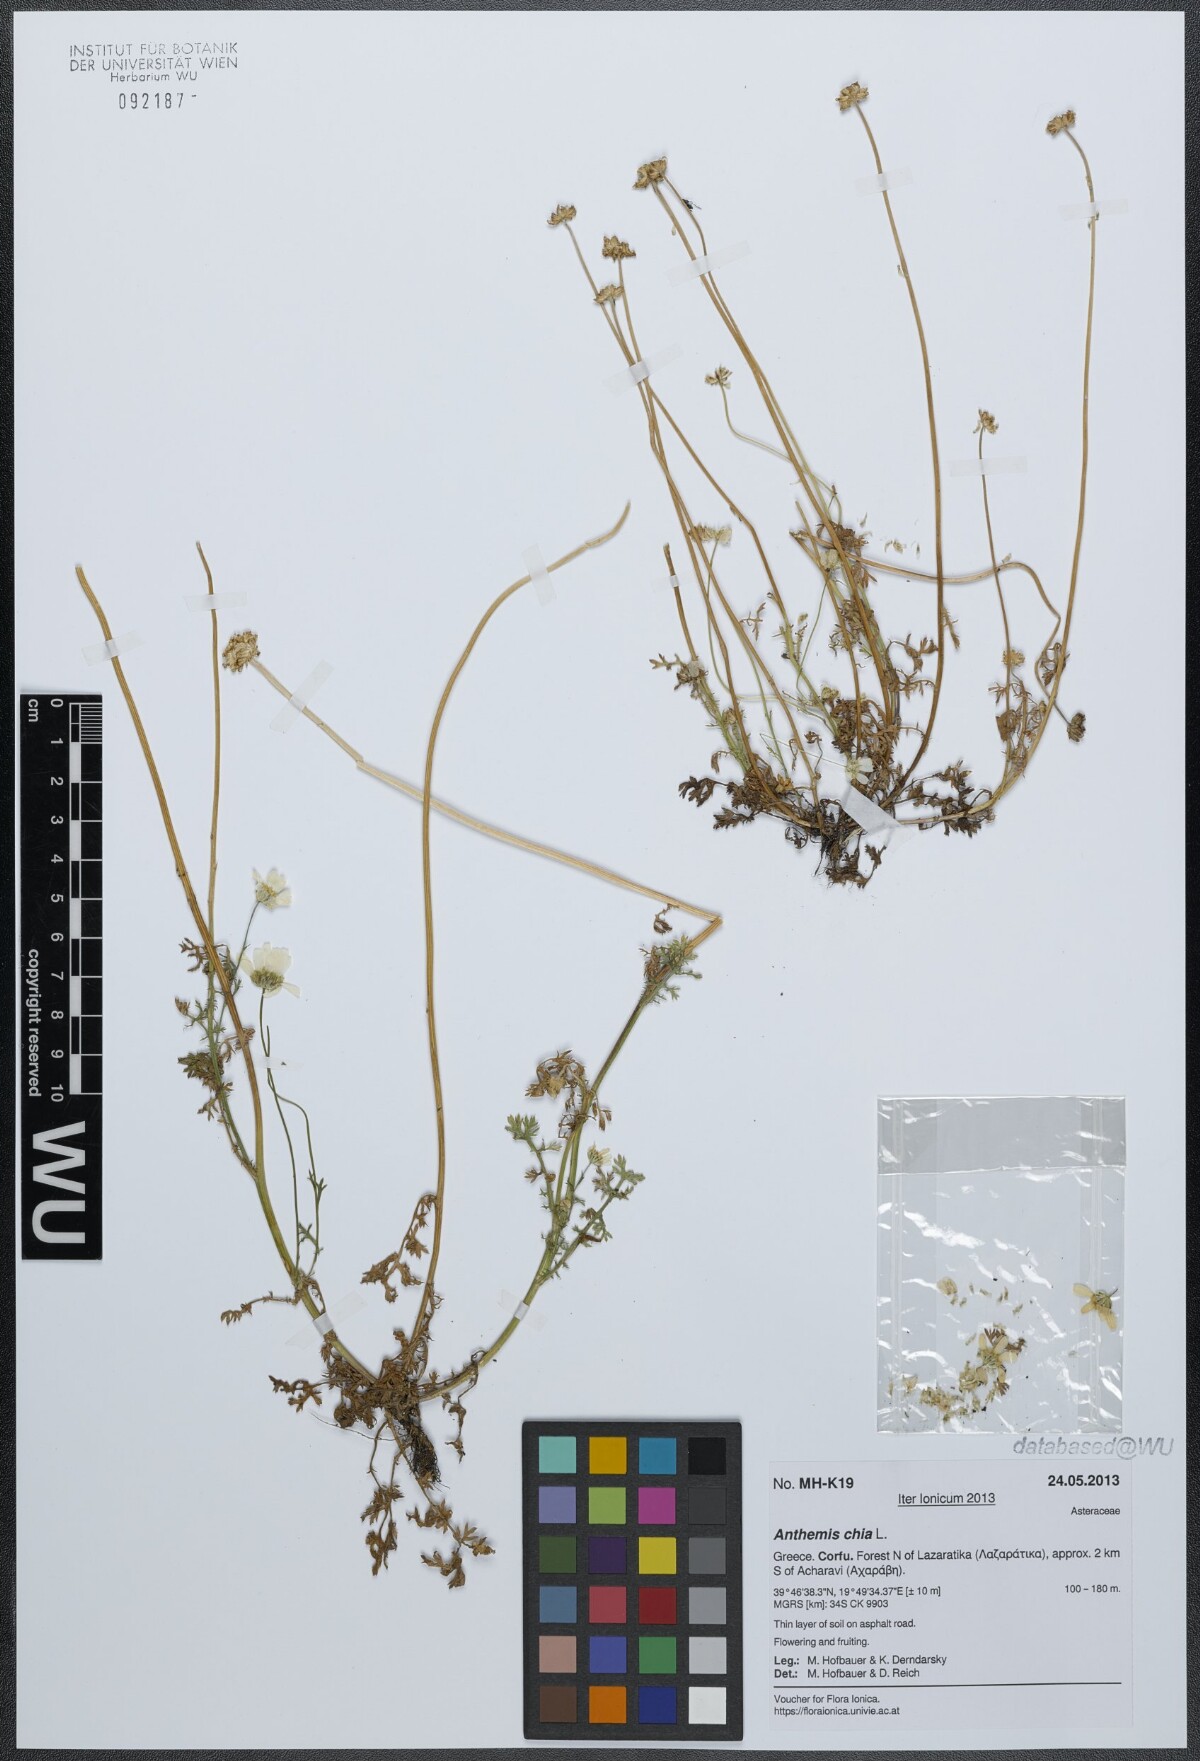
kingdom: Plantae
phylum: Tracheophyta
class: Magnoliopsida
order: Asterales
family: Asteraceae
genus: Anthemis
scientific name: Anthemis chia
